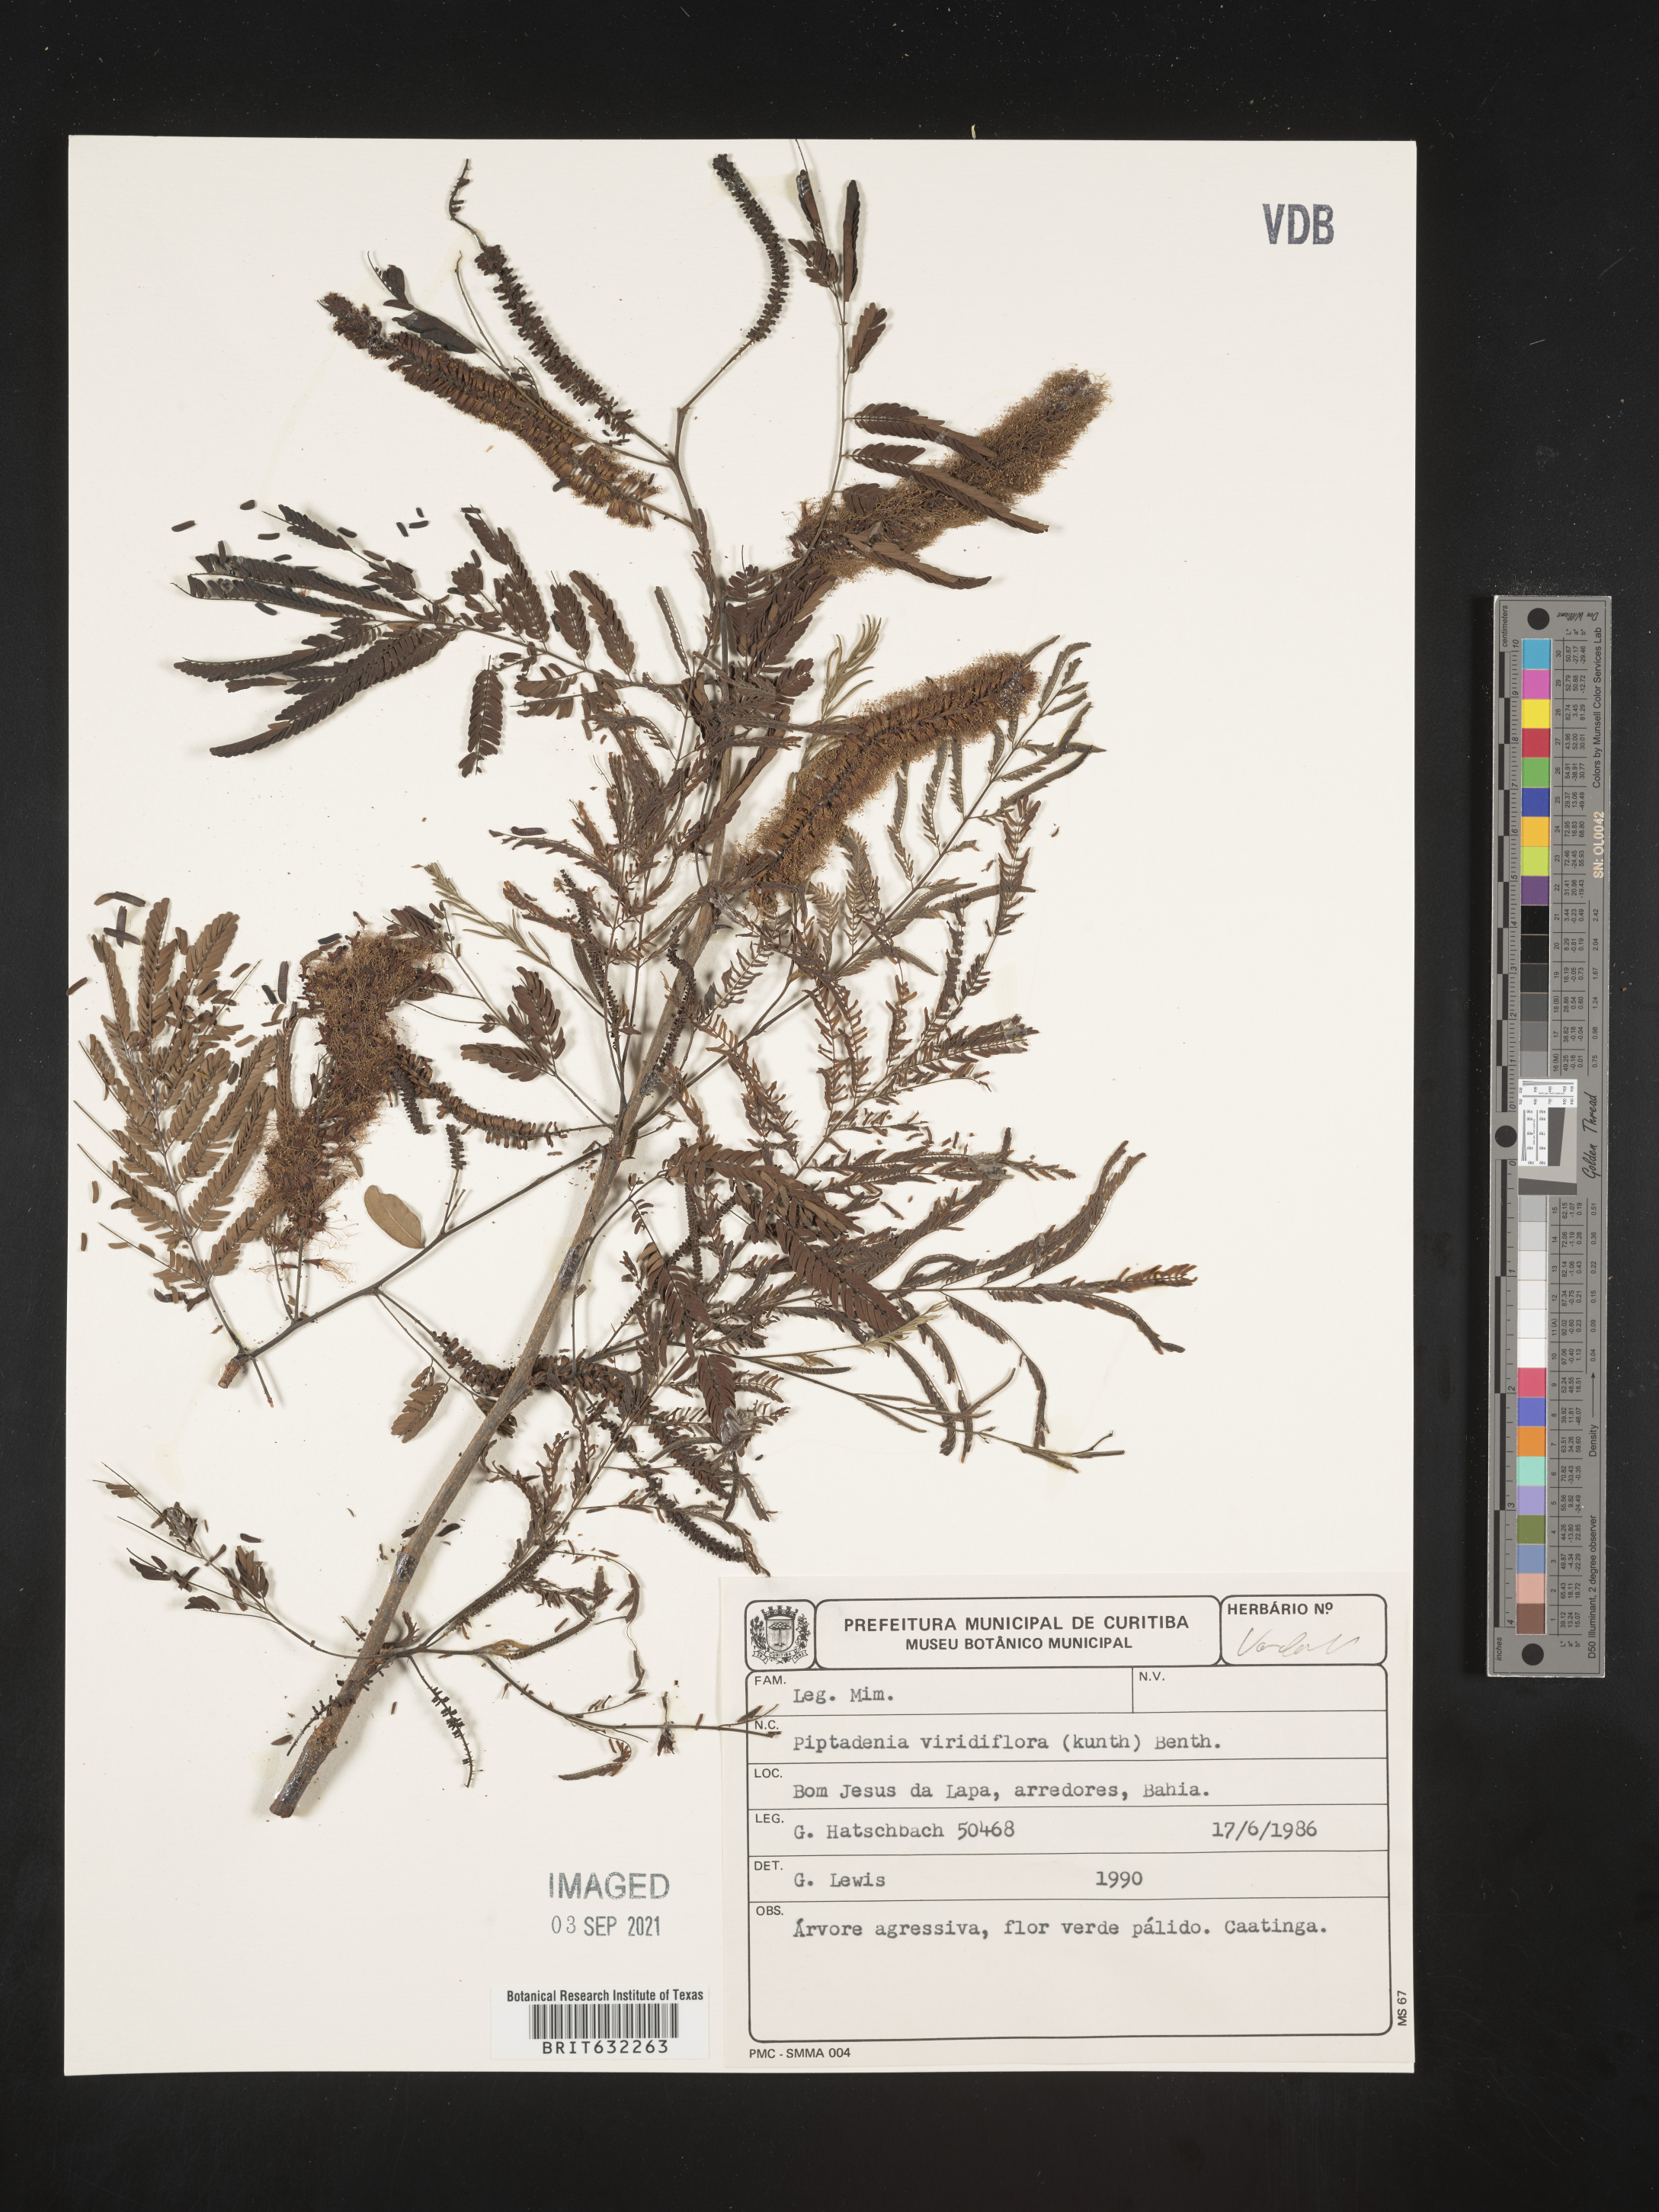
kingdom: Plantae
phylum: Tracheophyta
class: Magnoliopsida
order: Fabales
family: Fabaceae
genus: Piptadenia
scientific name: Piptadenia
